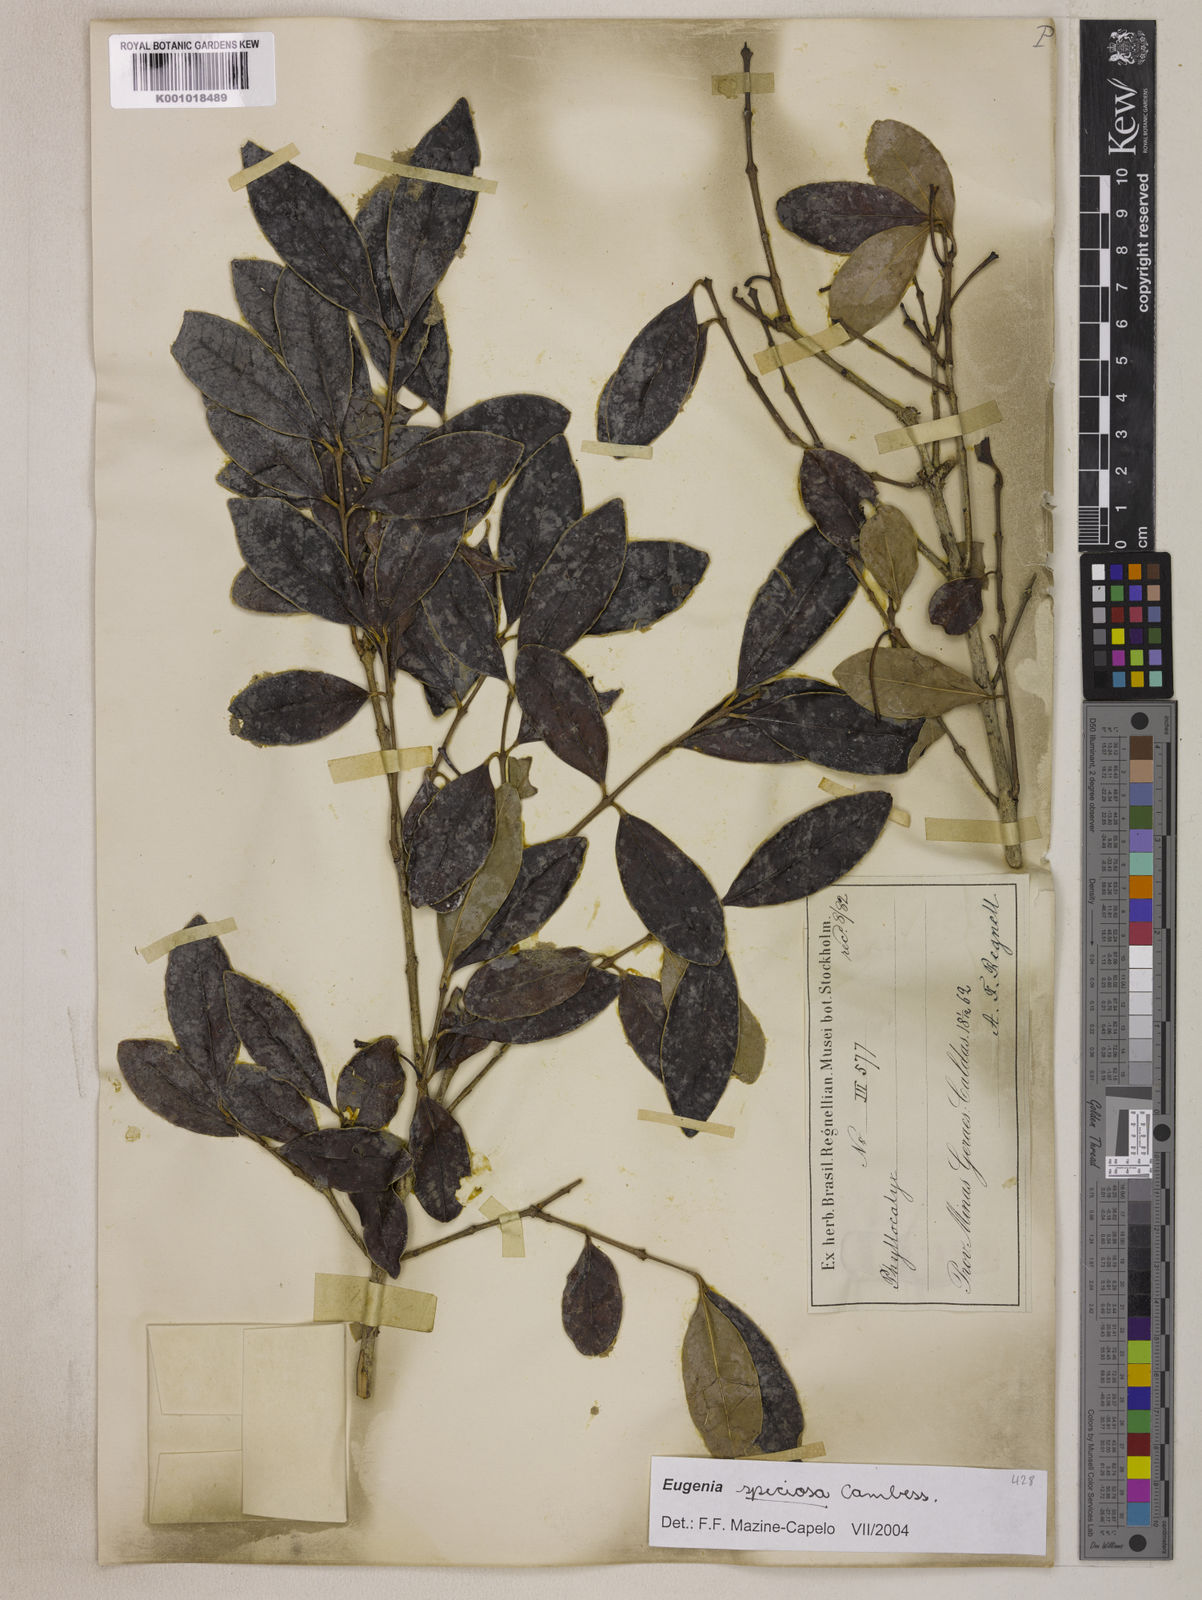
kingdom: Plantae
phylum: Tracheophyta
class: Magnoliopsida
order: Myrtales
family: Myrtaceae
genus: Eugenia
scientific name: Eugenia speciosa
